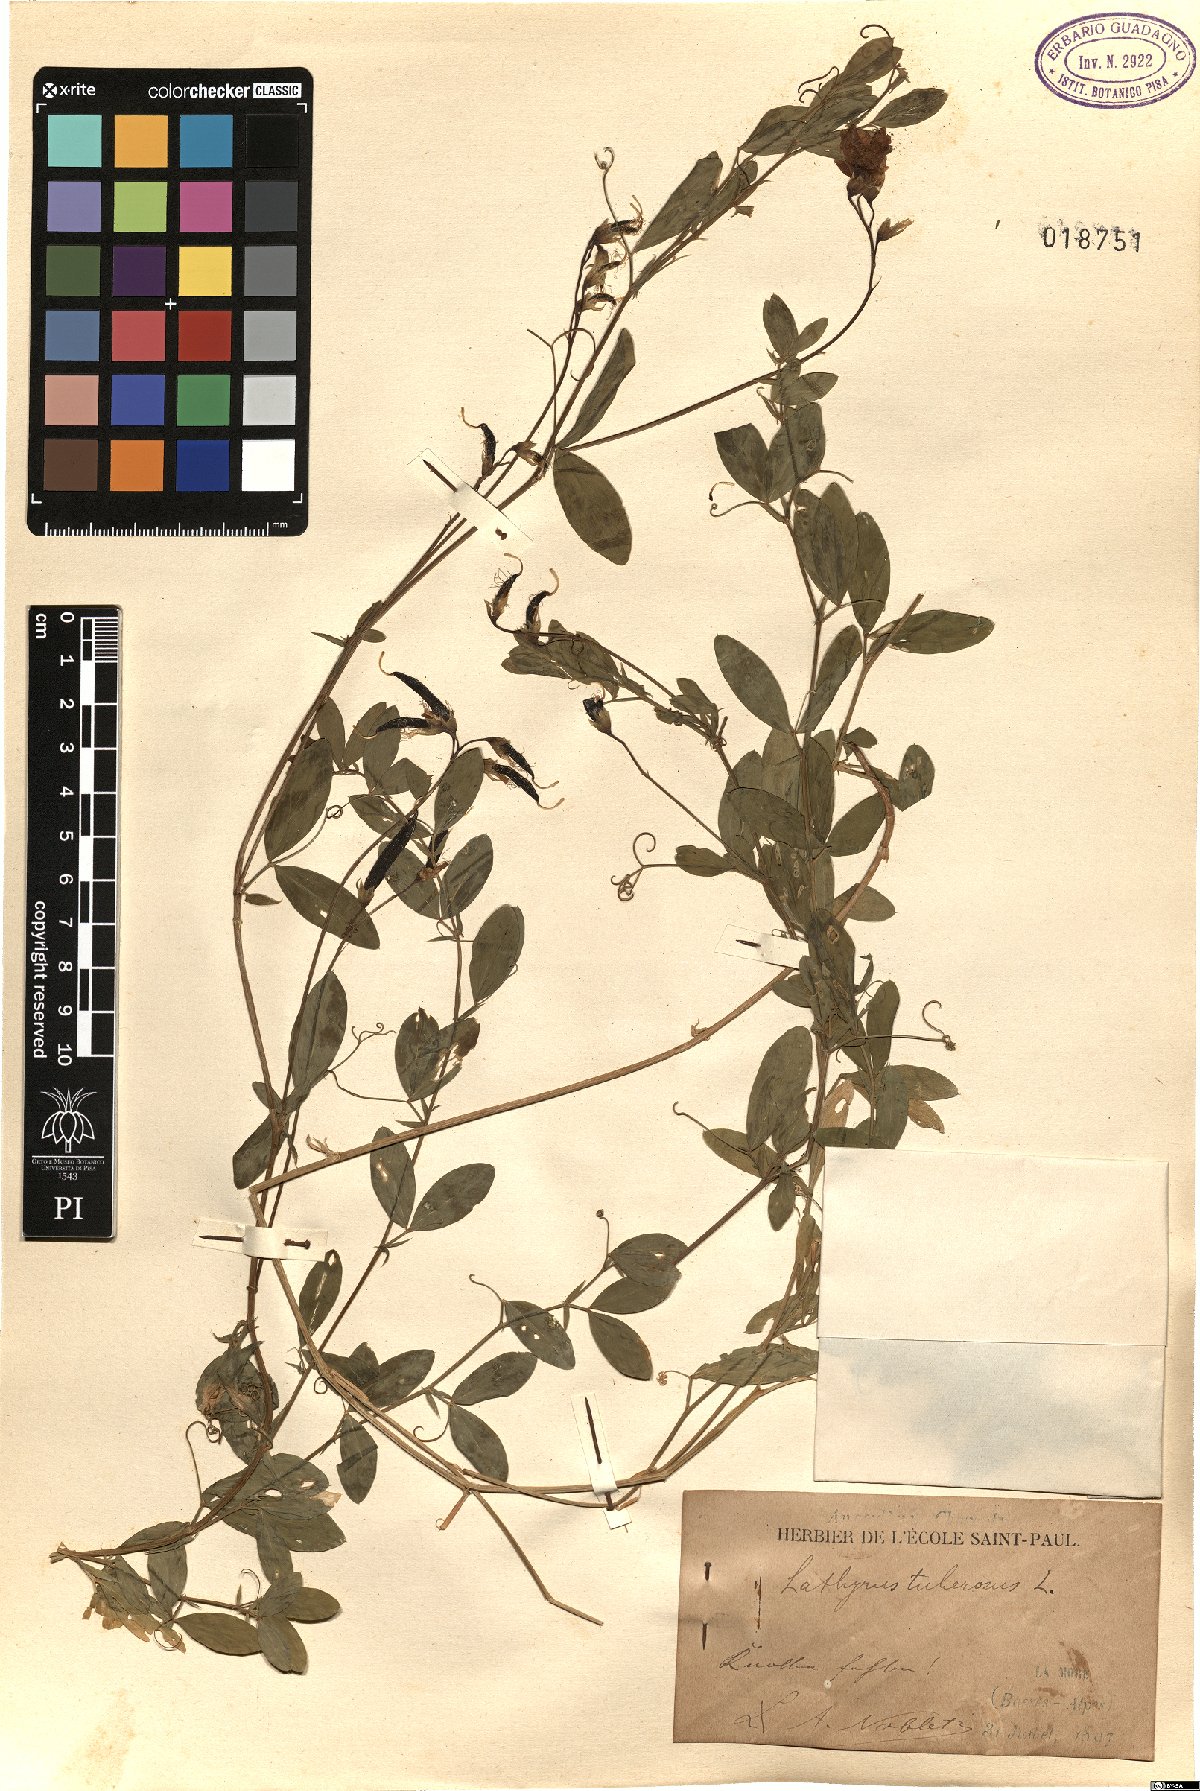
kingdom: Plantae
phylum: Tracheophyta
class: Magnoliopsida
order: Fabales
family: Fabaceae
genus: Lathyrus
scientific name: Lathyrus tuberosus
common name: Tuberous pea
